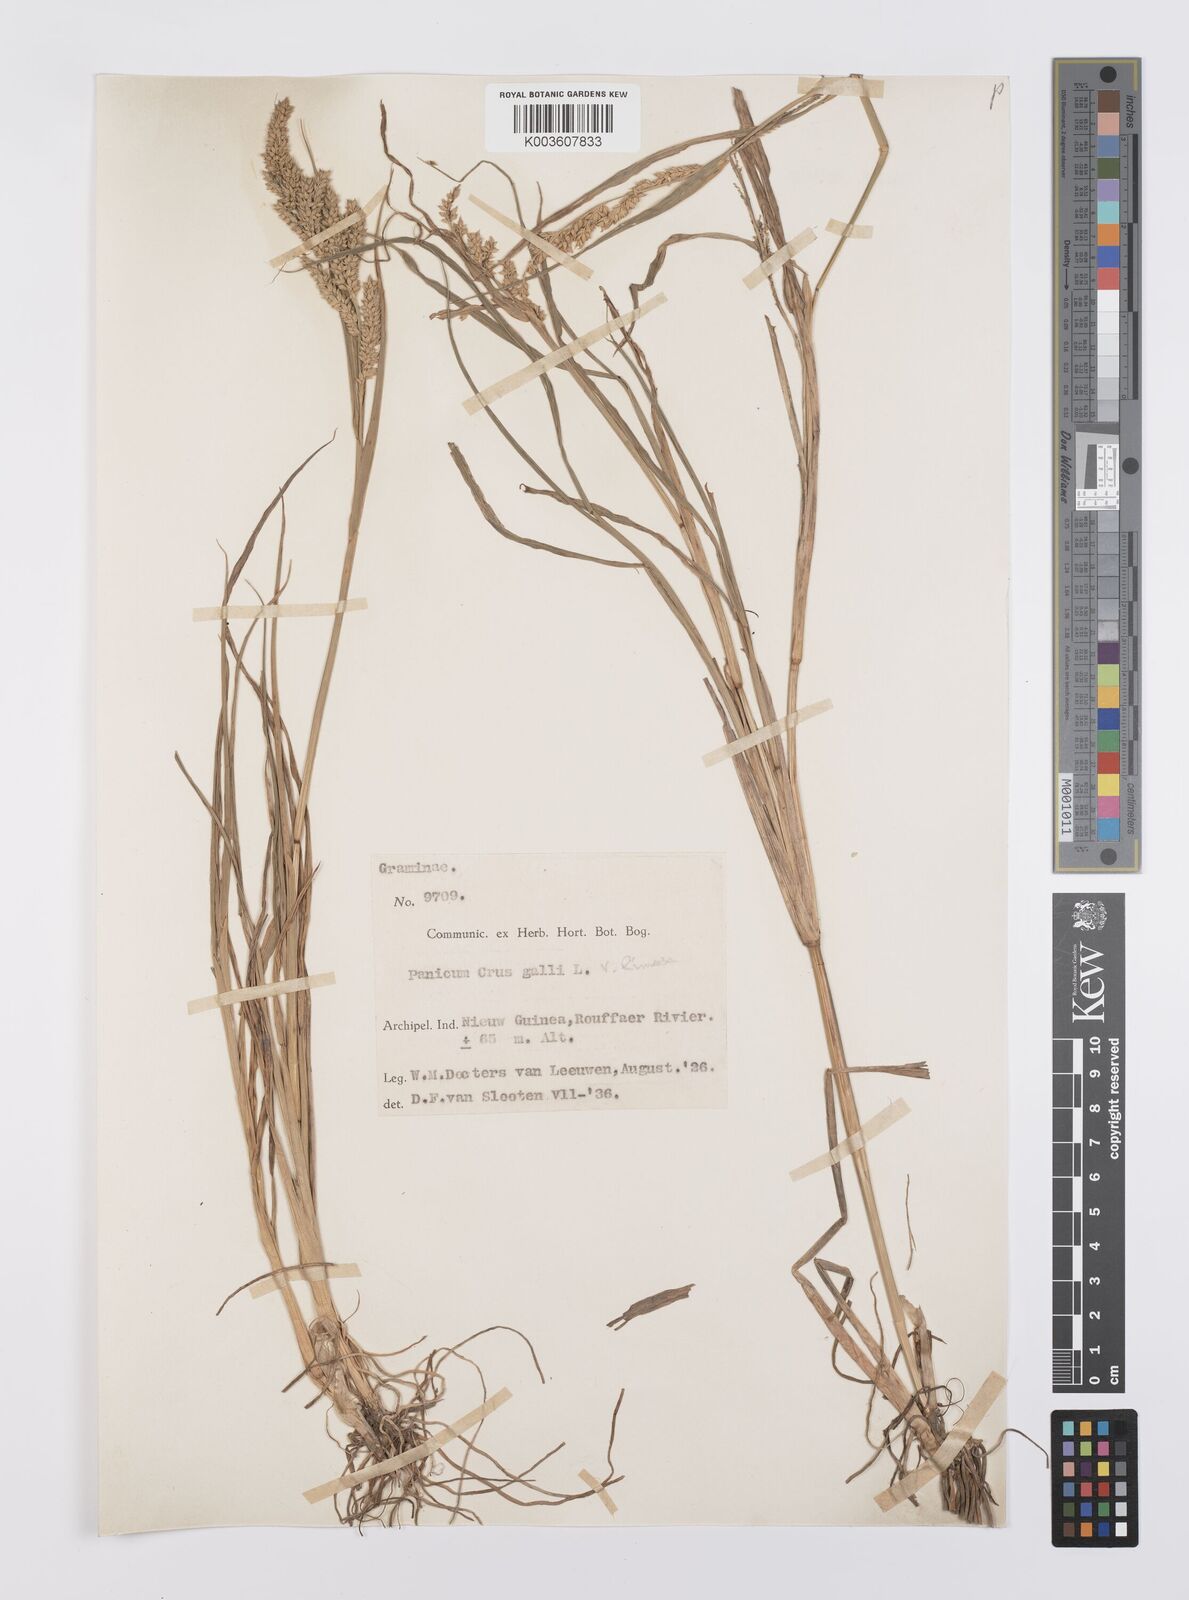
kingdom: Plantae
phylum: Tracheophyta
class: Liliopsida
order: Poales
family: Poaceae
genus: Echinochloa
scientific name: Echinochloa crus-galli
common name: Cockspur
